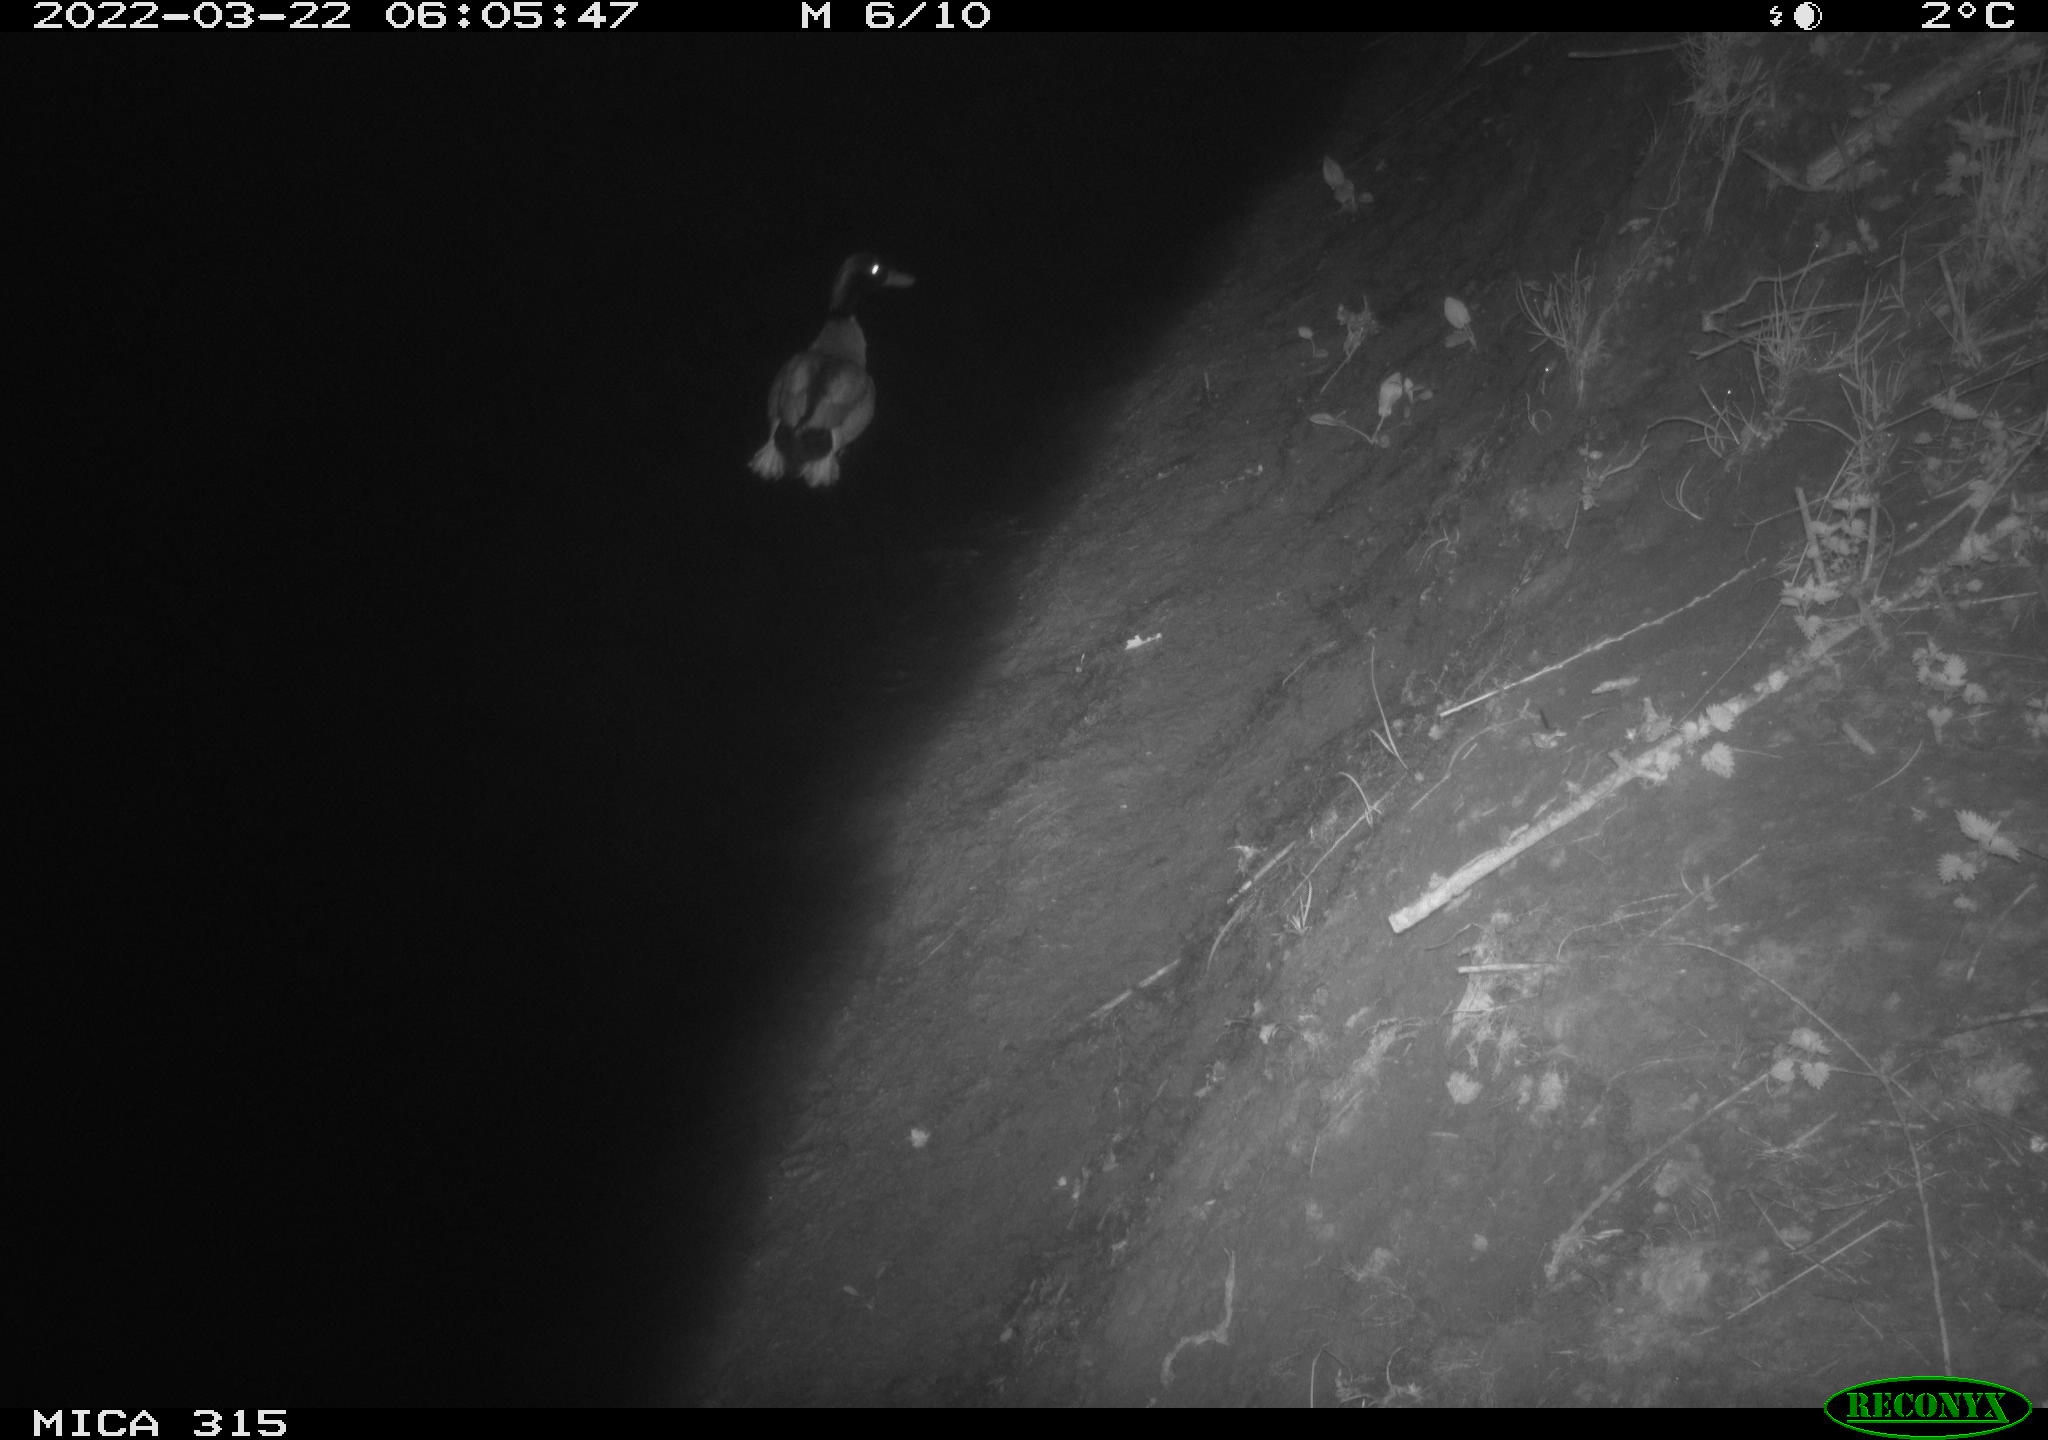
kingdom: Animalia
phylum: Chordata
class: Aves
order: Anseriformes
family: Anatidae
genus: Anas
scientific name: Anas platyrhynchos
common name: Mallard
